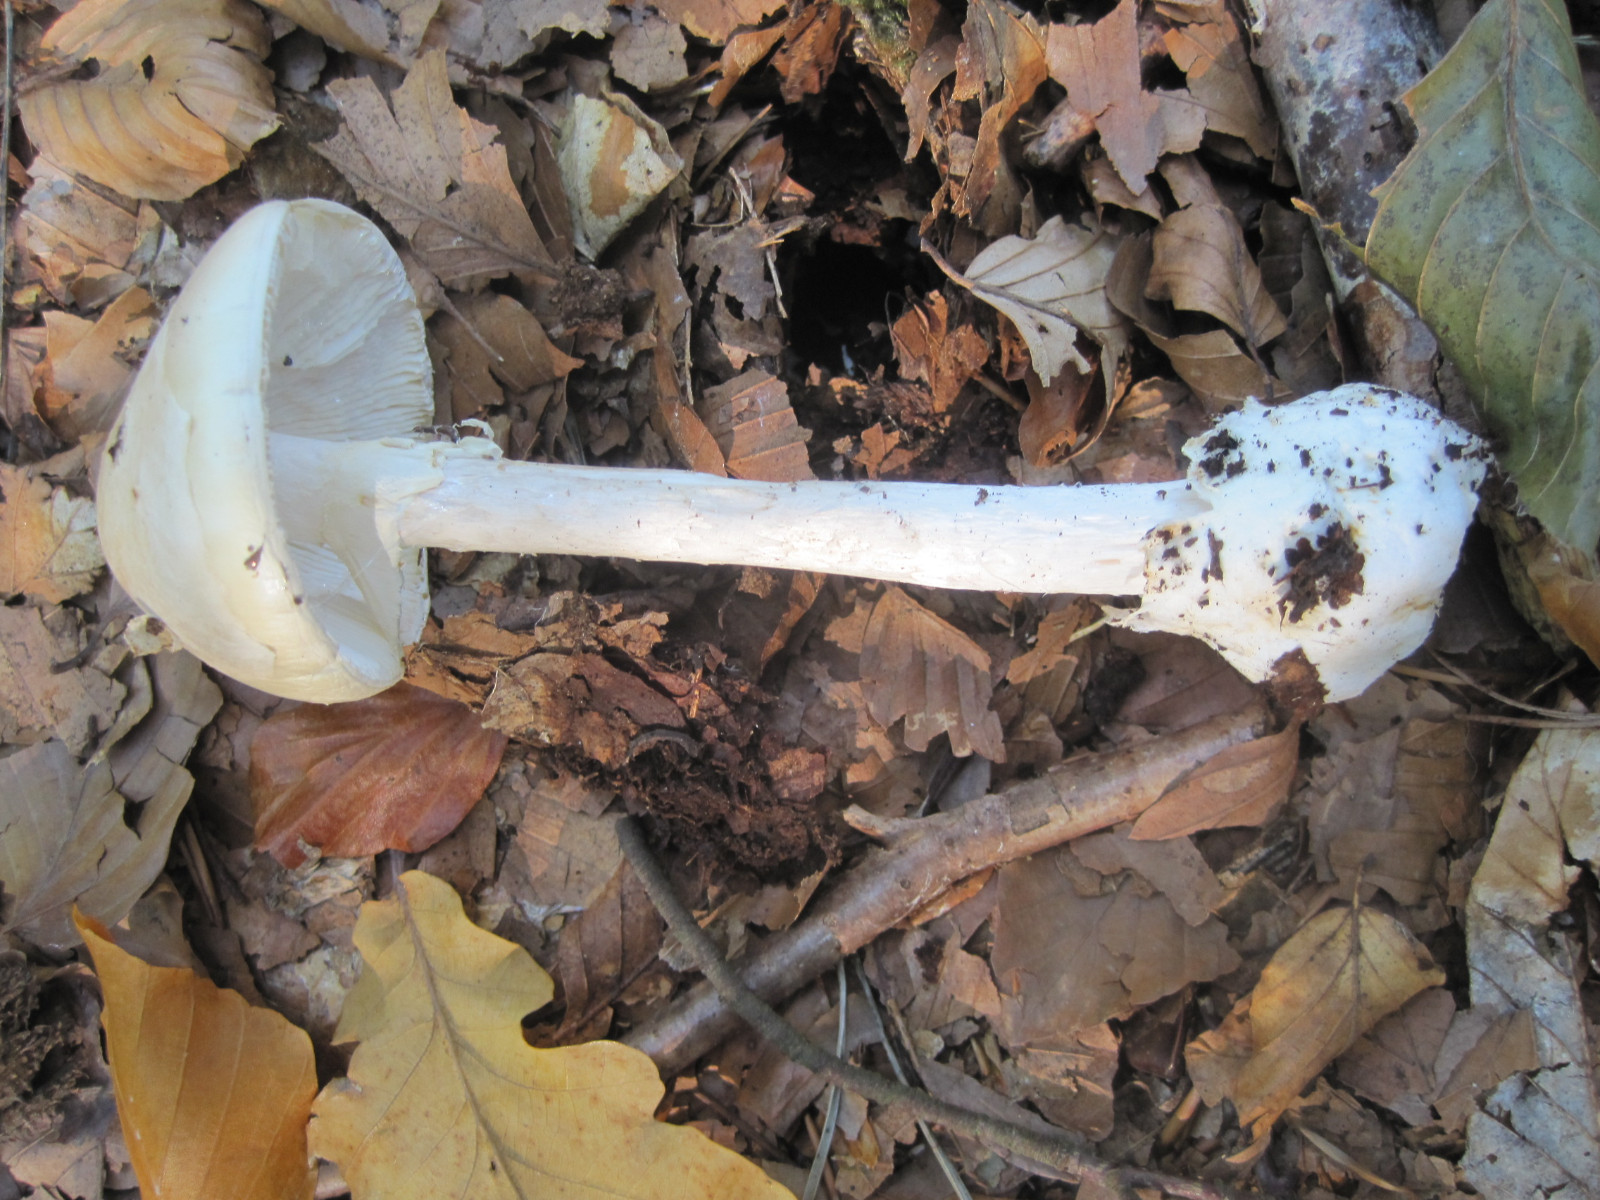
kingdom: Fungi
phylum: Basidiomycota
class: Agaricomycetes
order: Agaricales
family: Amanitaceae
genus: Amanita
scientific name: Amanita virosa
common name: snehvid fluesvamp
